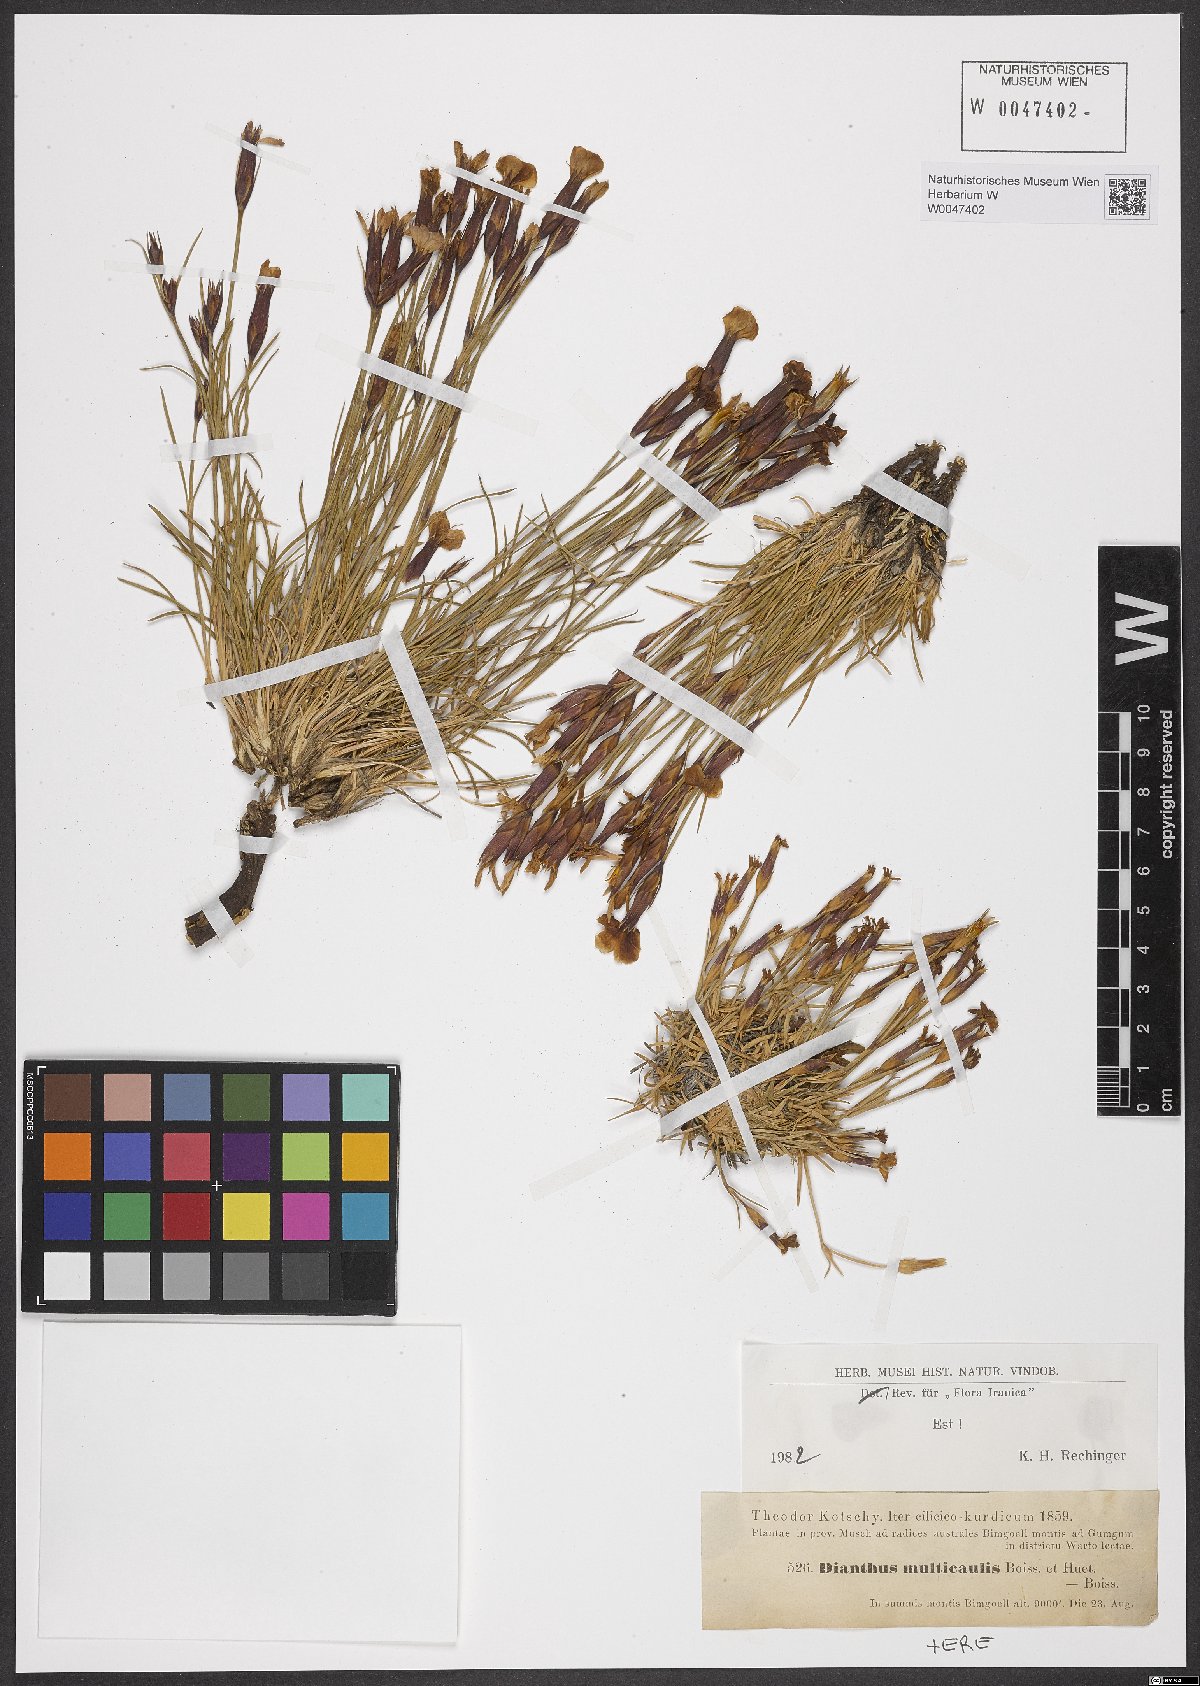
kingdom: Plantae
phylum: Tracheophyta
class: Magnoliopsida
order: Caryophyllales
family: Caryophyllaceae
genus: Dianthus
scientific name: Dianthus cretaceus
